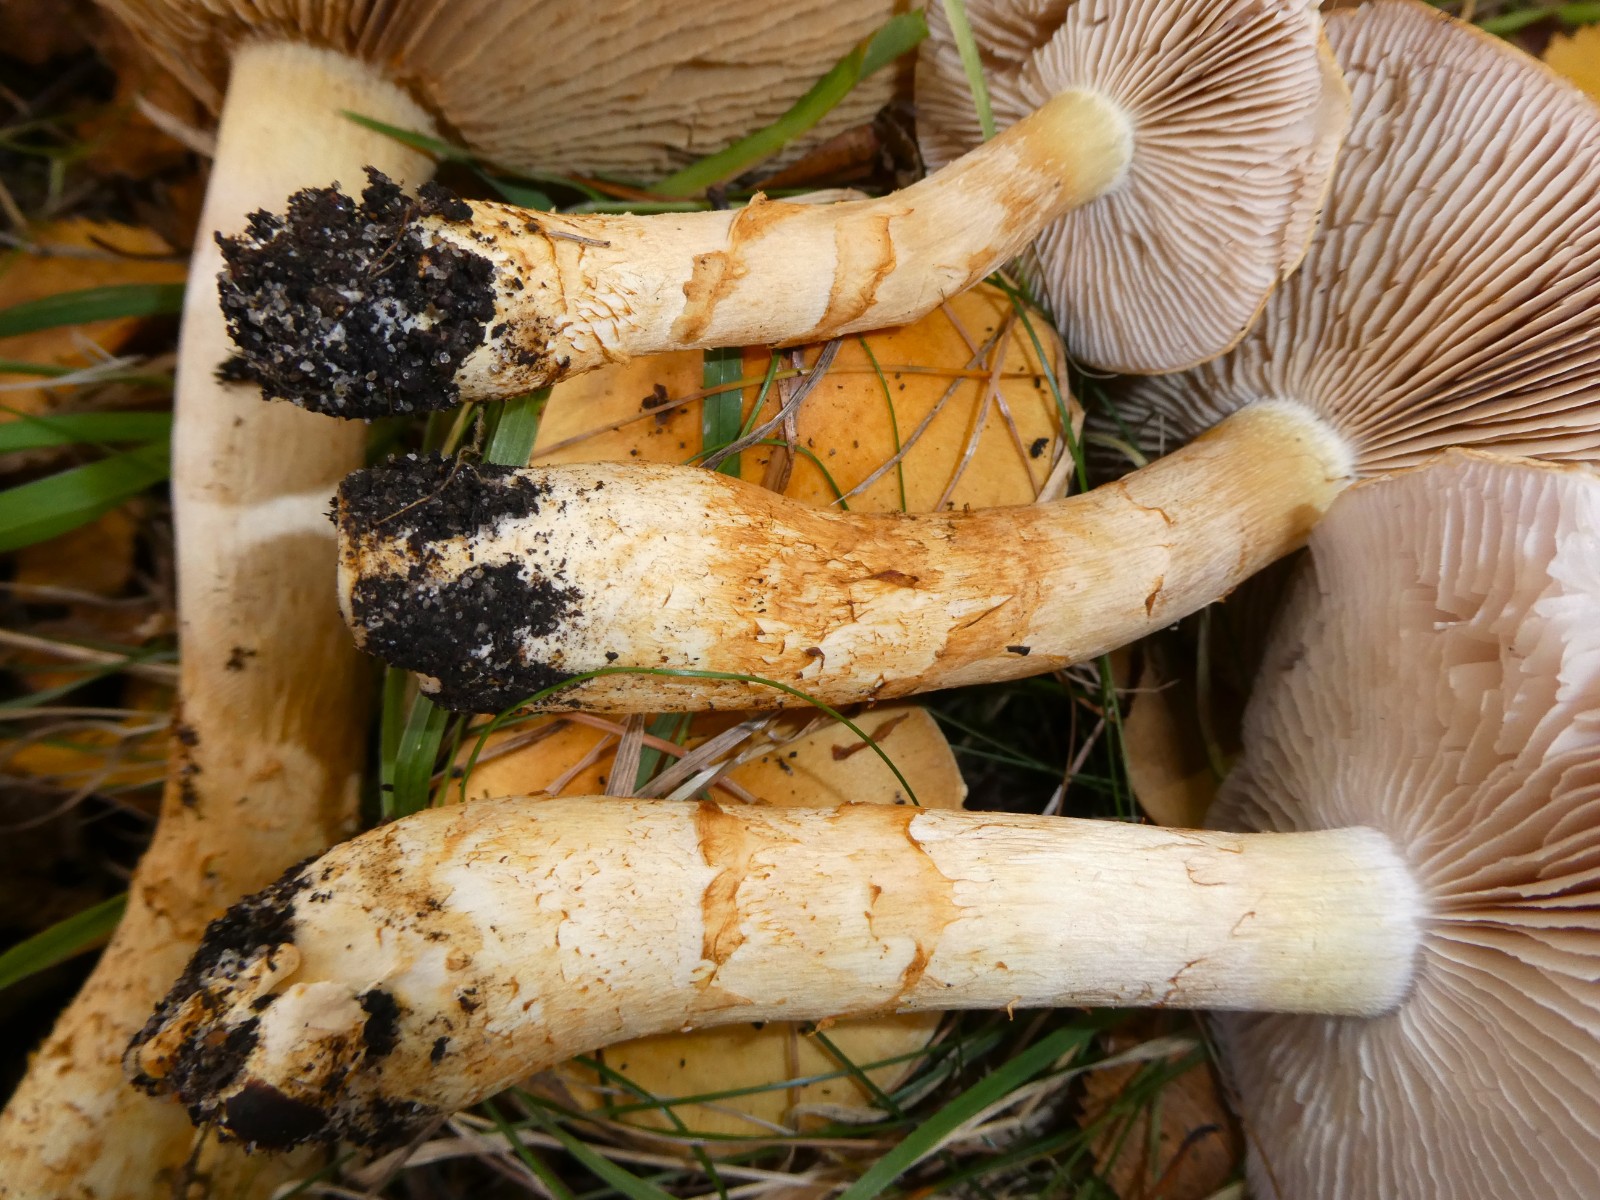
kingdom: Fungi
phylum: Basidiomycota
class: Agaricomycetes
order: Agaricales
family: Cortinariaceae
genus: Phlegmacium
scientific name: Phlegmacium triumphans
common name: gulbæltet slørhat
